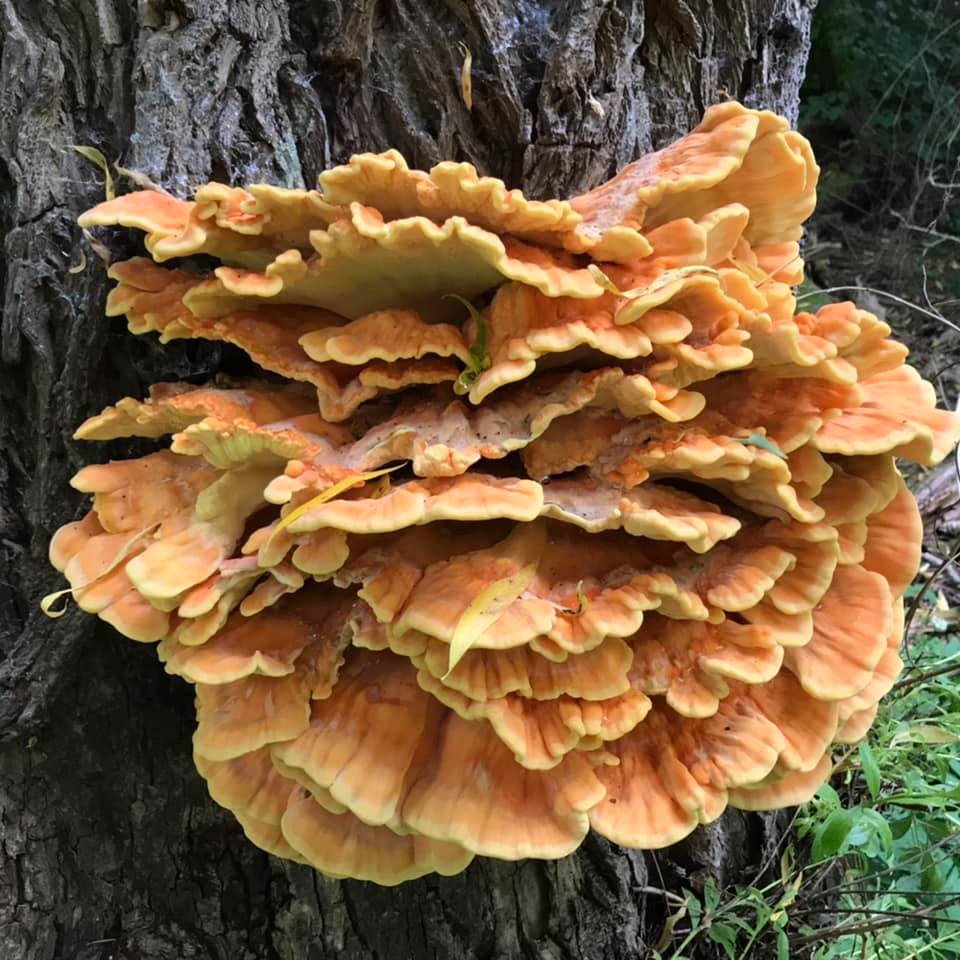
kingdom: Fungi
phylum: Basidiomycota
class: Agaricomycetes
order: Polyporales
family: Laetiporaceae
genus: Laetiporus
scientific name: Laetiporus sulphureus
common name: svovlporesvamp
